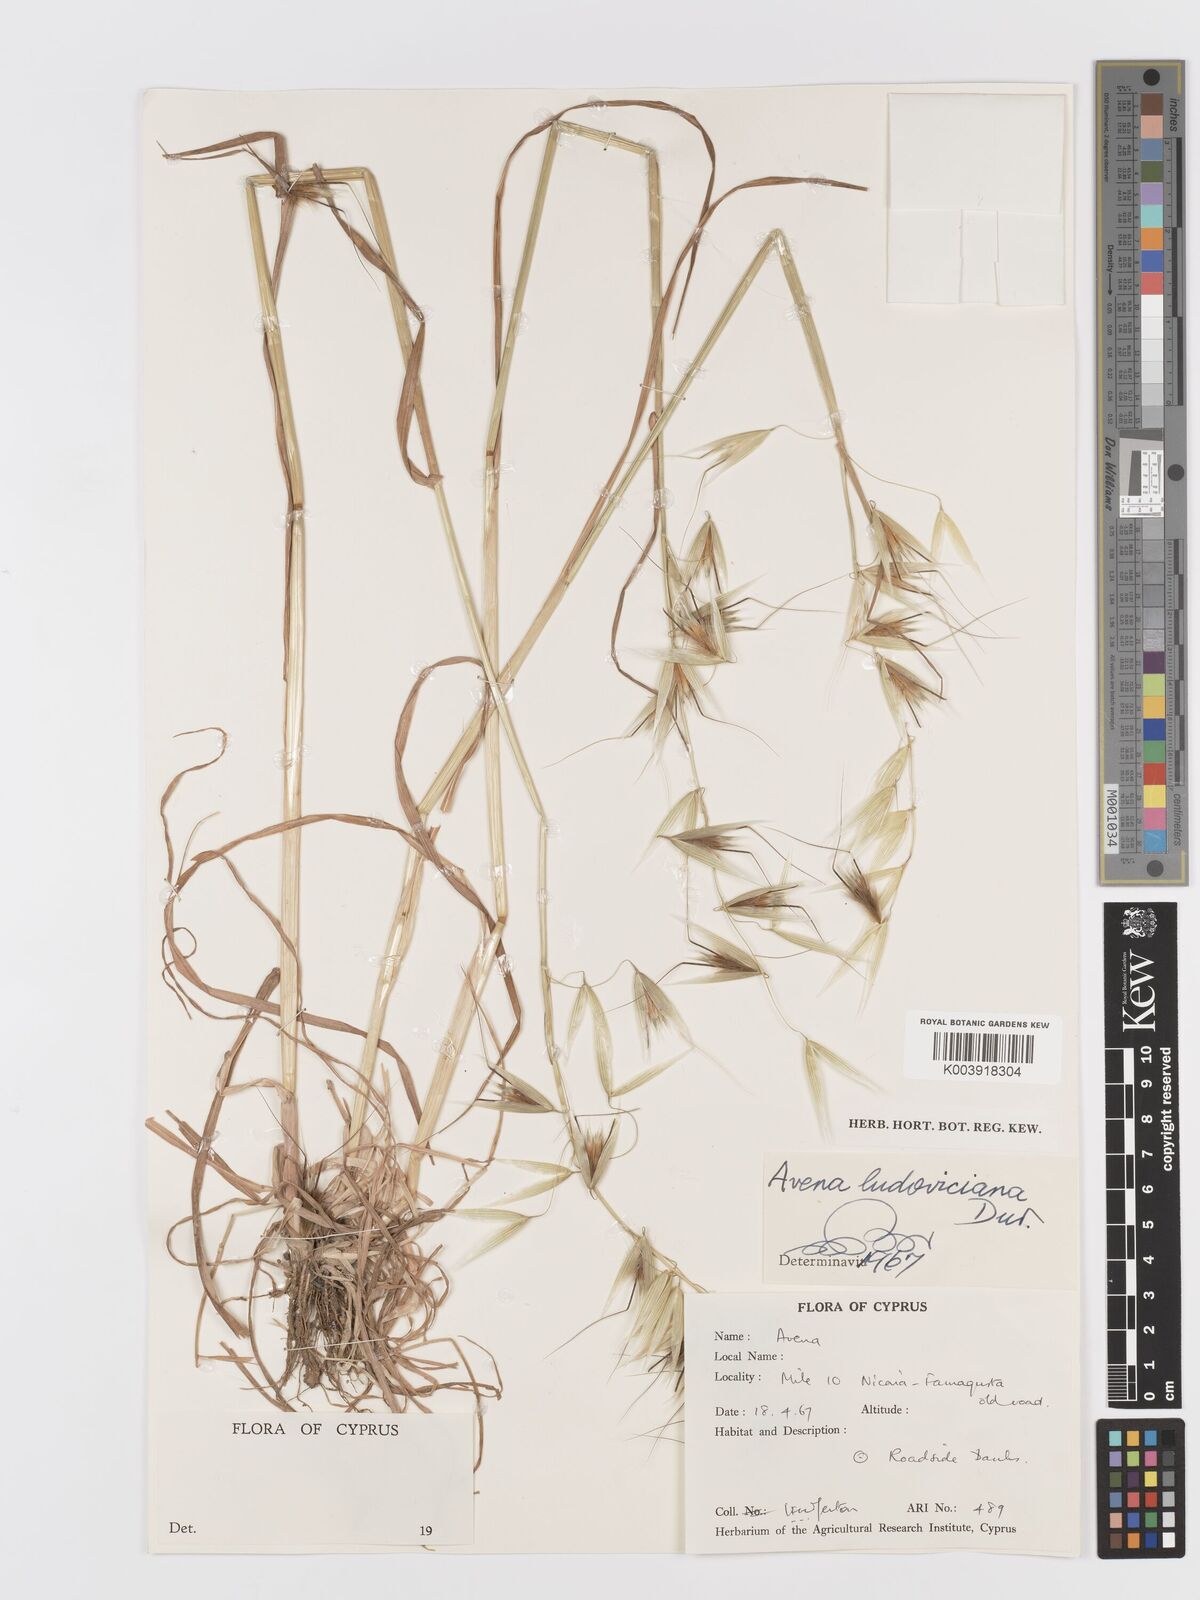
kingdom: Plantae
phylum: Tracheophyta
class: Liliopsida
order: Poales
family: Poaceae
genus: Avena
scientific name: Avena sterilis
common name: Animated oat
